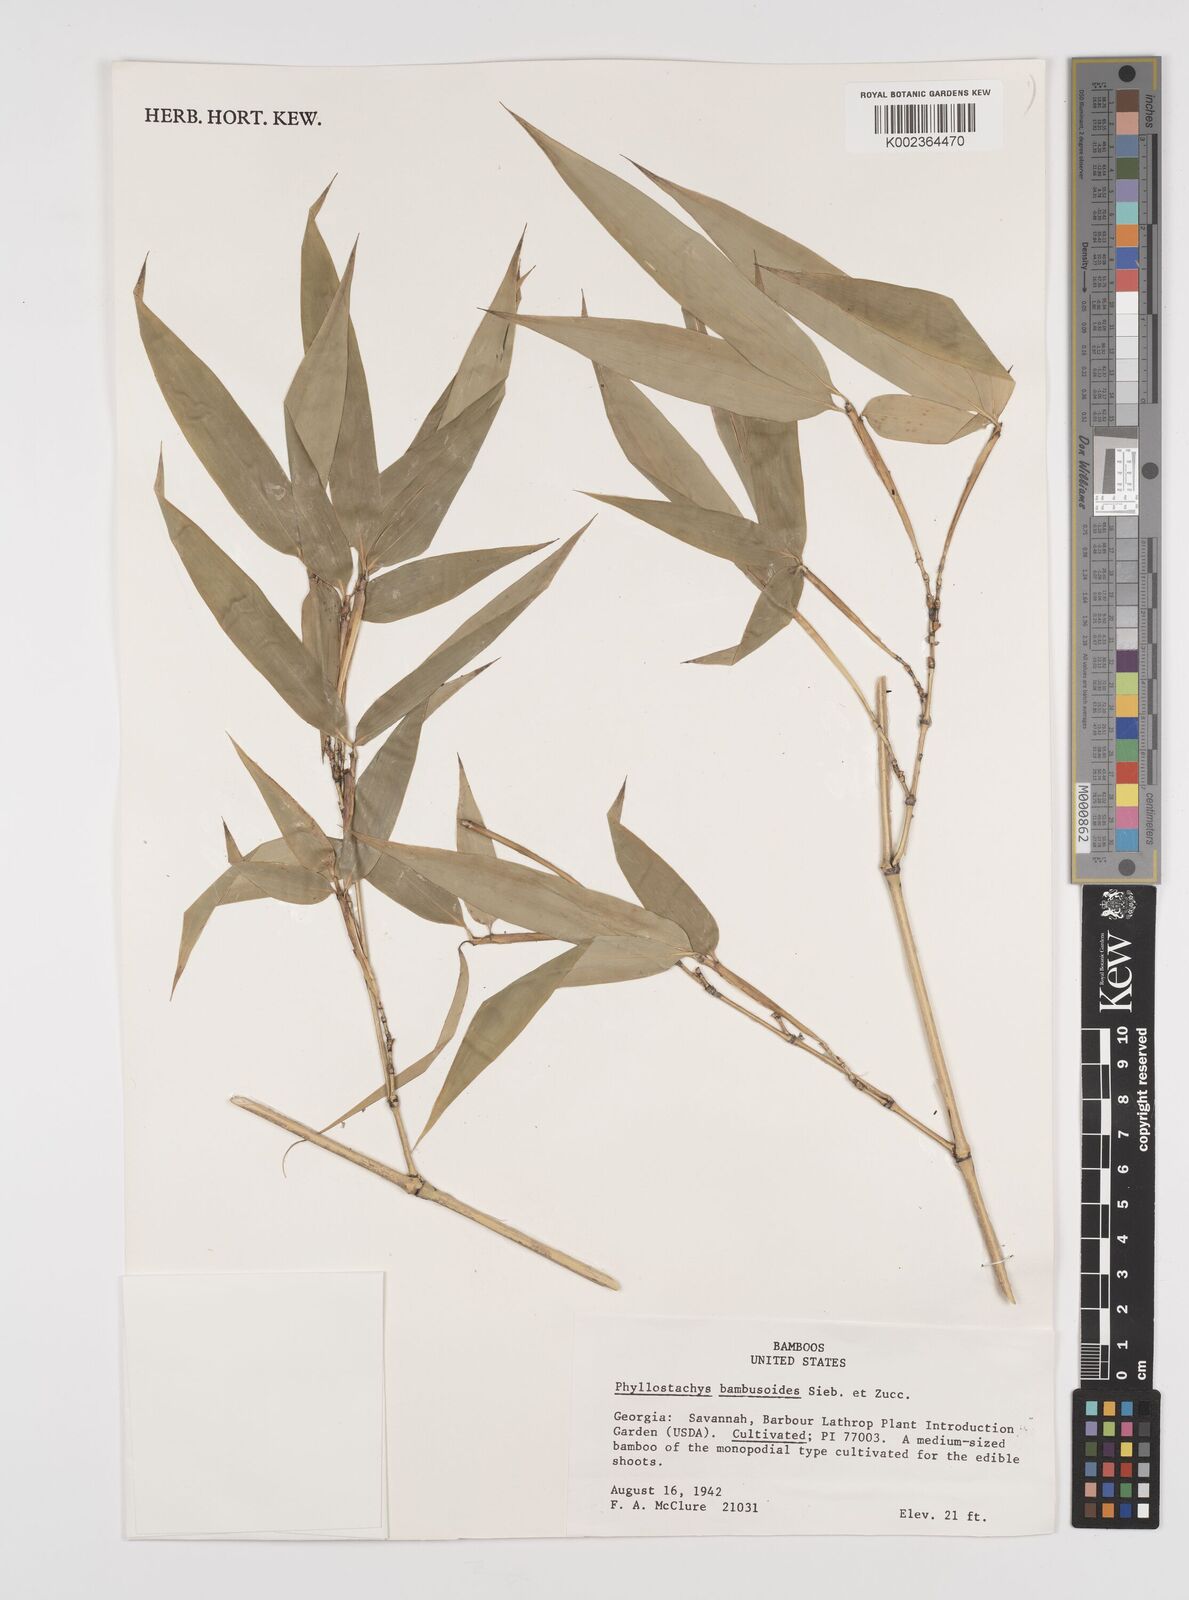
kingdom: Plantae
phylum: Tracheophyta
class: Liliopsida
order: Poales
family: Poaceae
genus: Phyllostachys
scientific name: Phyllostachys reticulata
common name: Bamboo
